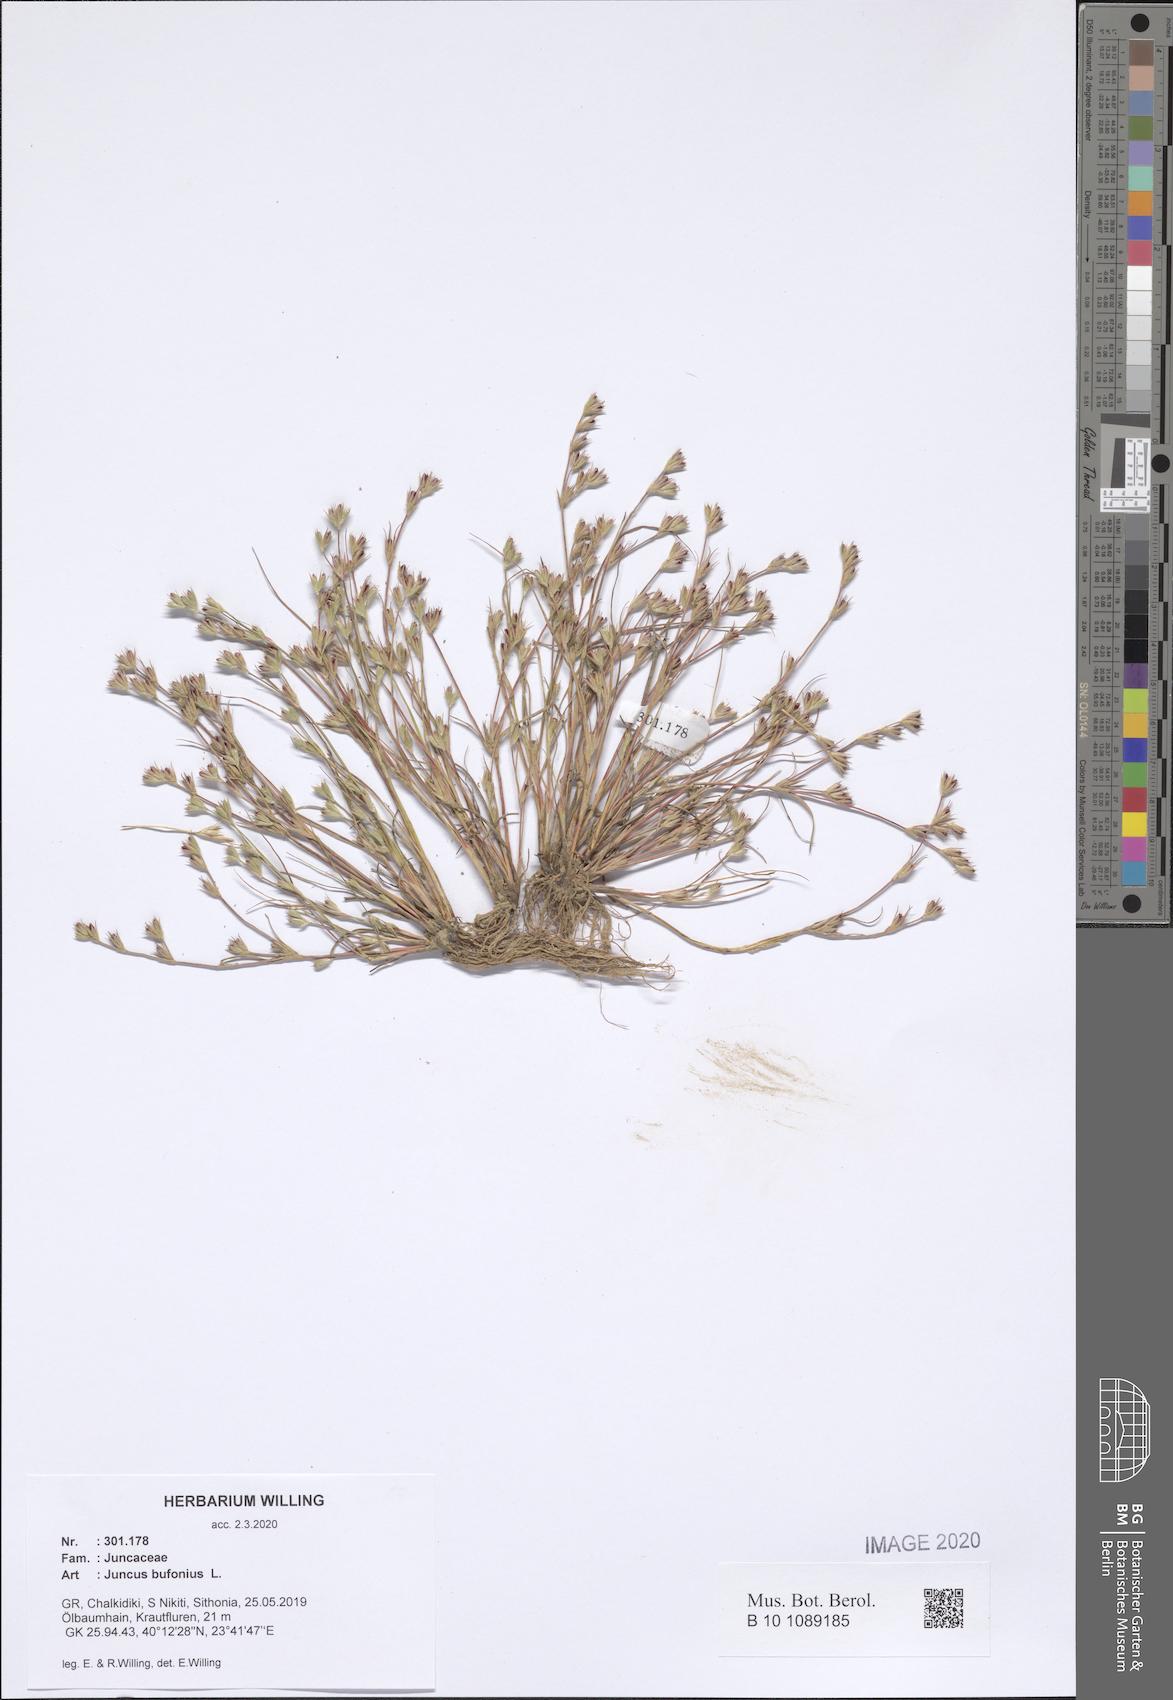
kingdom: Plantae
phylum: Tracheophyta
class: Liliopsida
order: Poales
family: Juncaceae
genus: Juncus
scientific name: Juncus bufonius
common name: Toad rush
